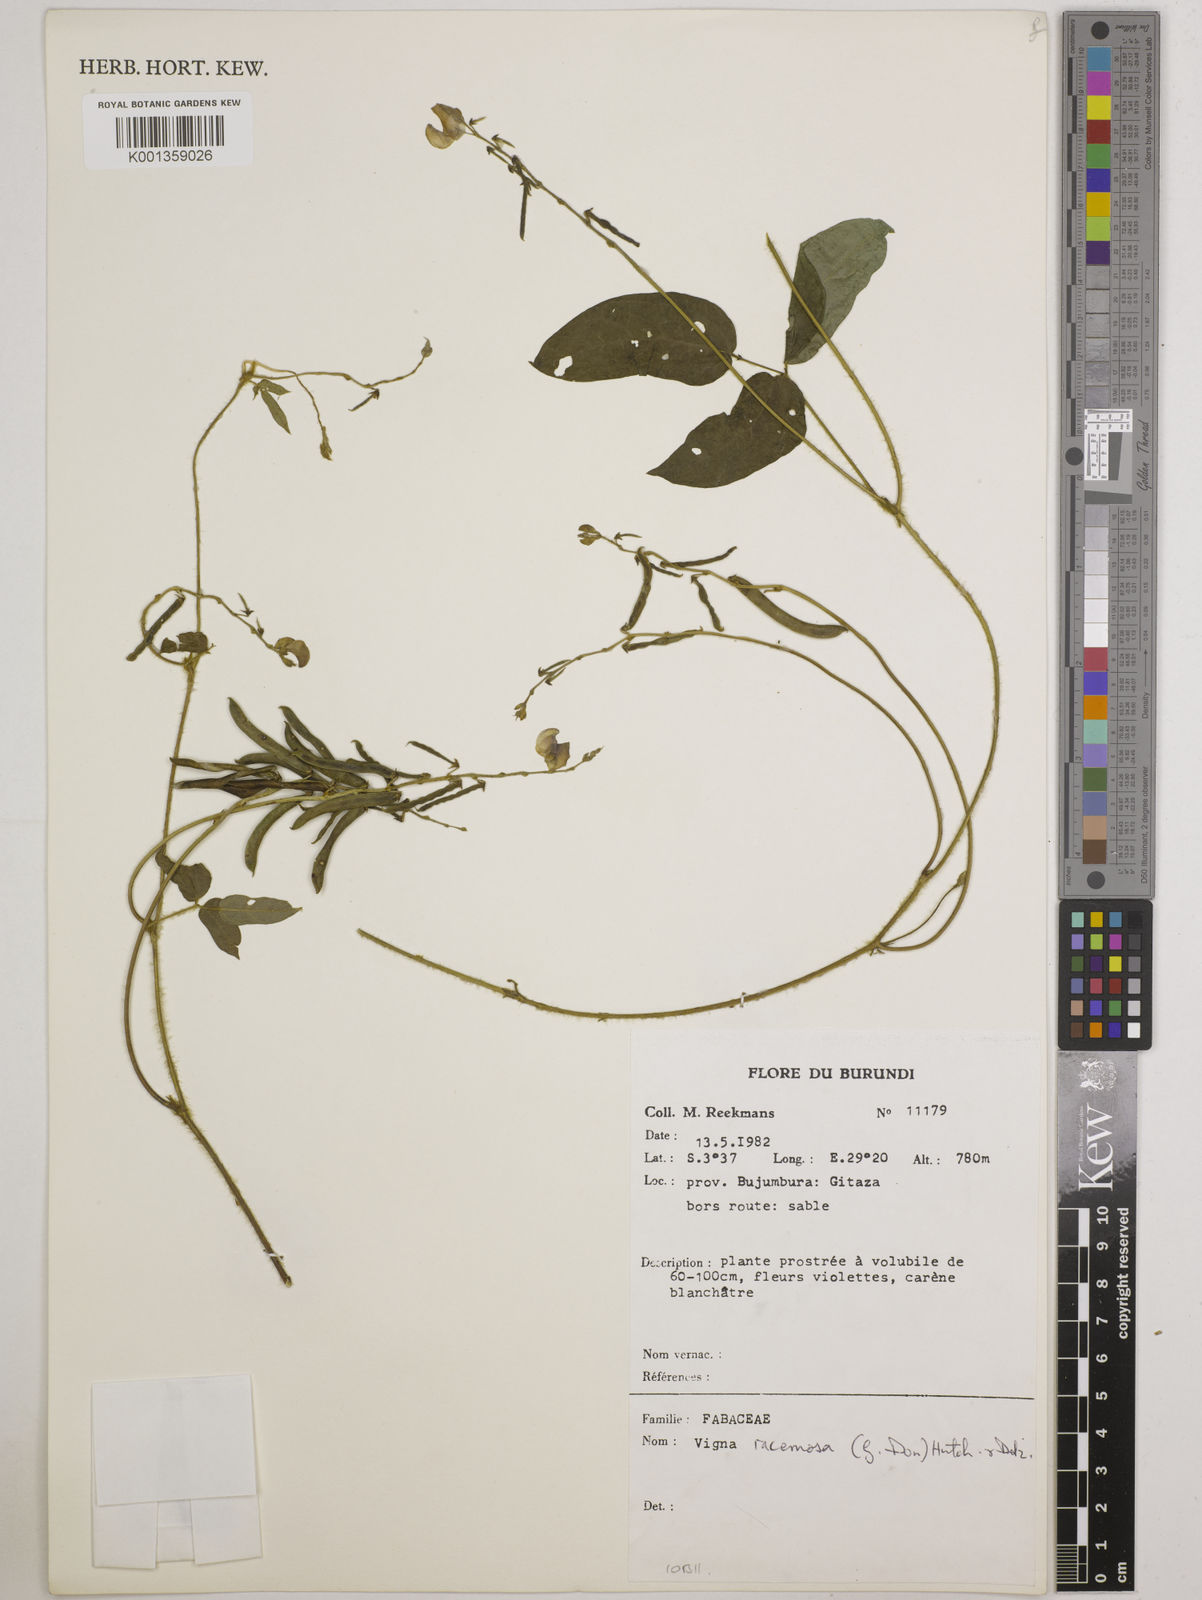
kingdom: Plantae
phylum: Tracheophyta
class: Magnoliopsida
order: Fabales
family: Fabaceae
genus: Vigna
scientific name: Vigna racemosa
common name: Beans not eaten
